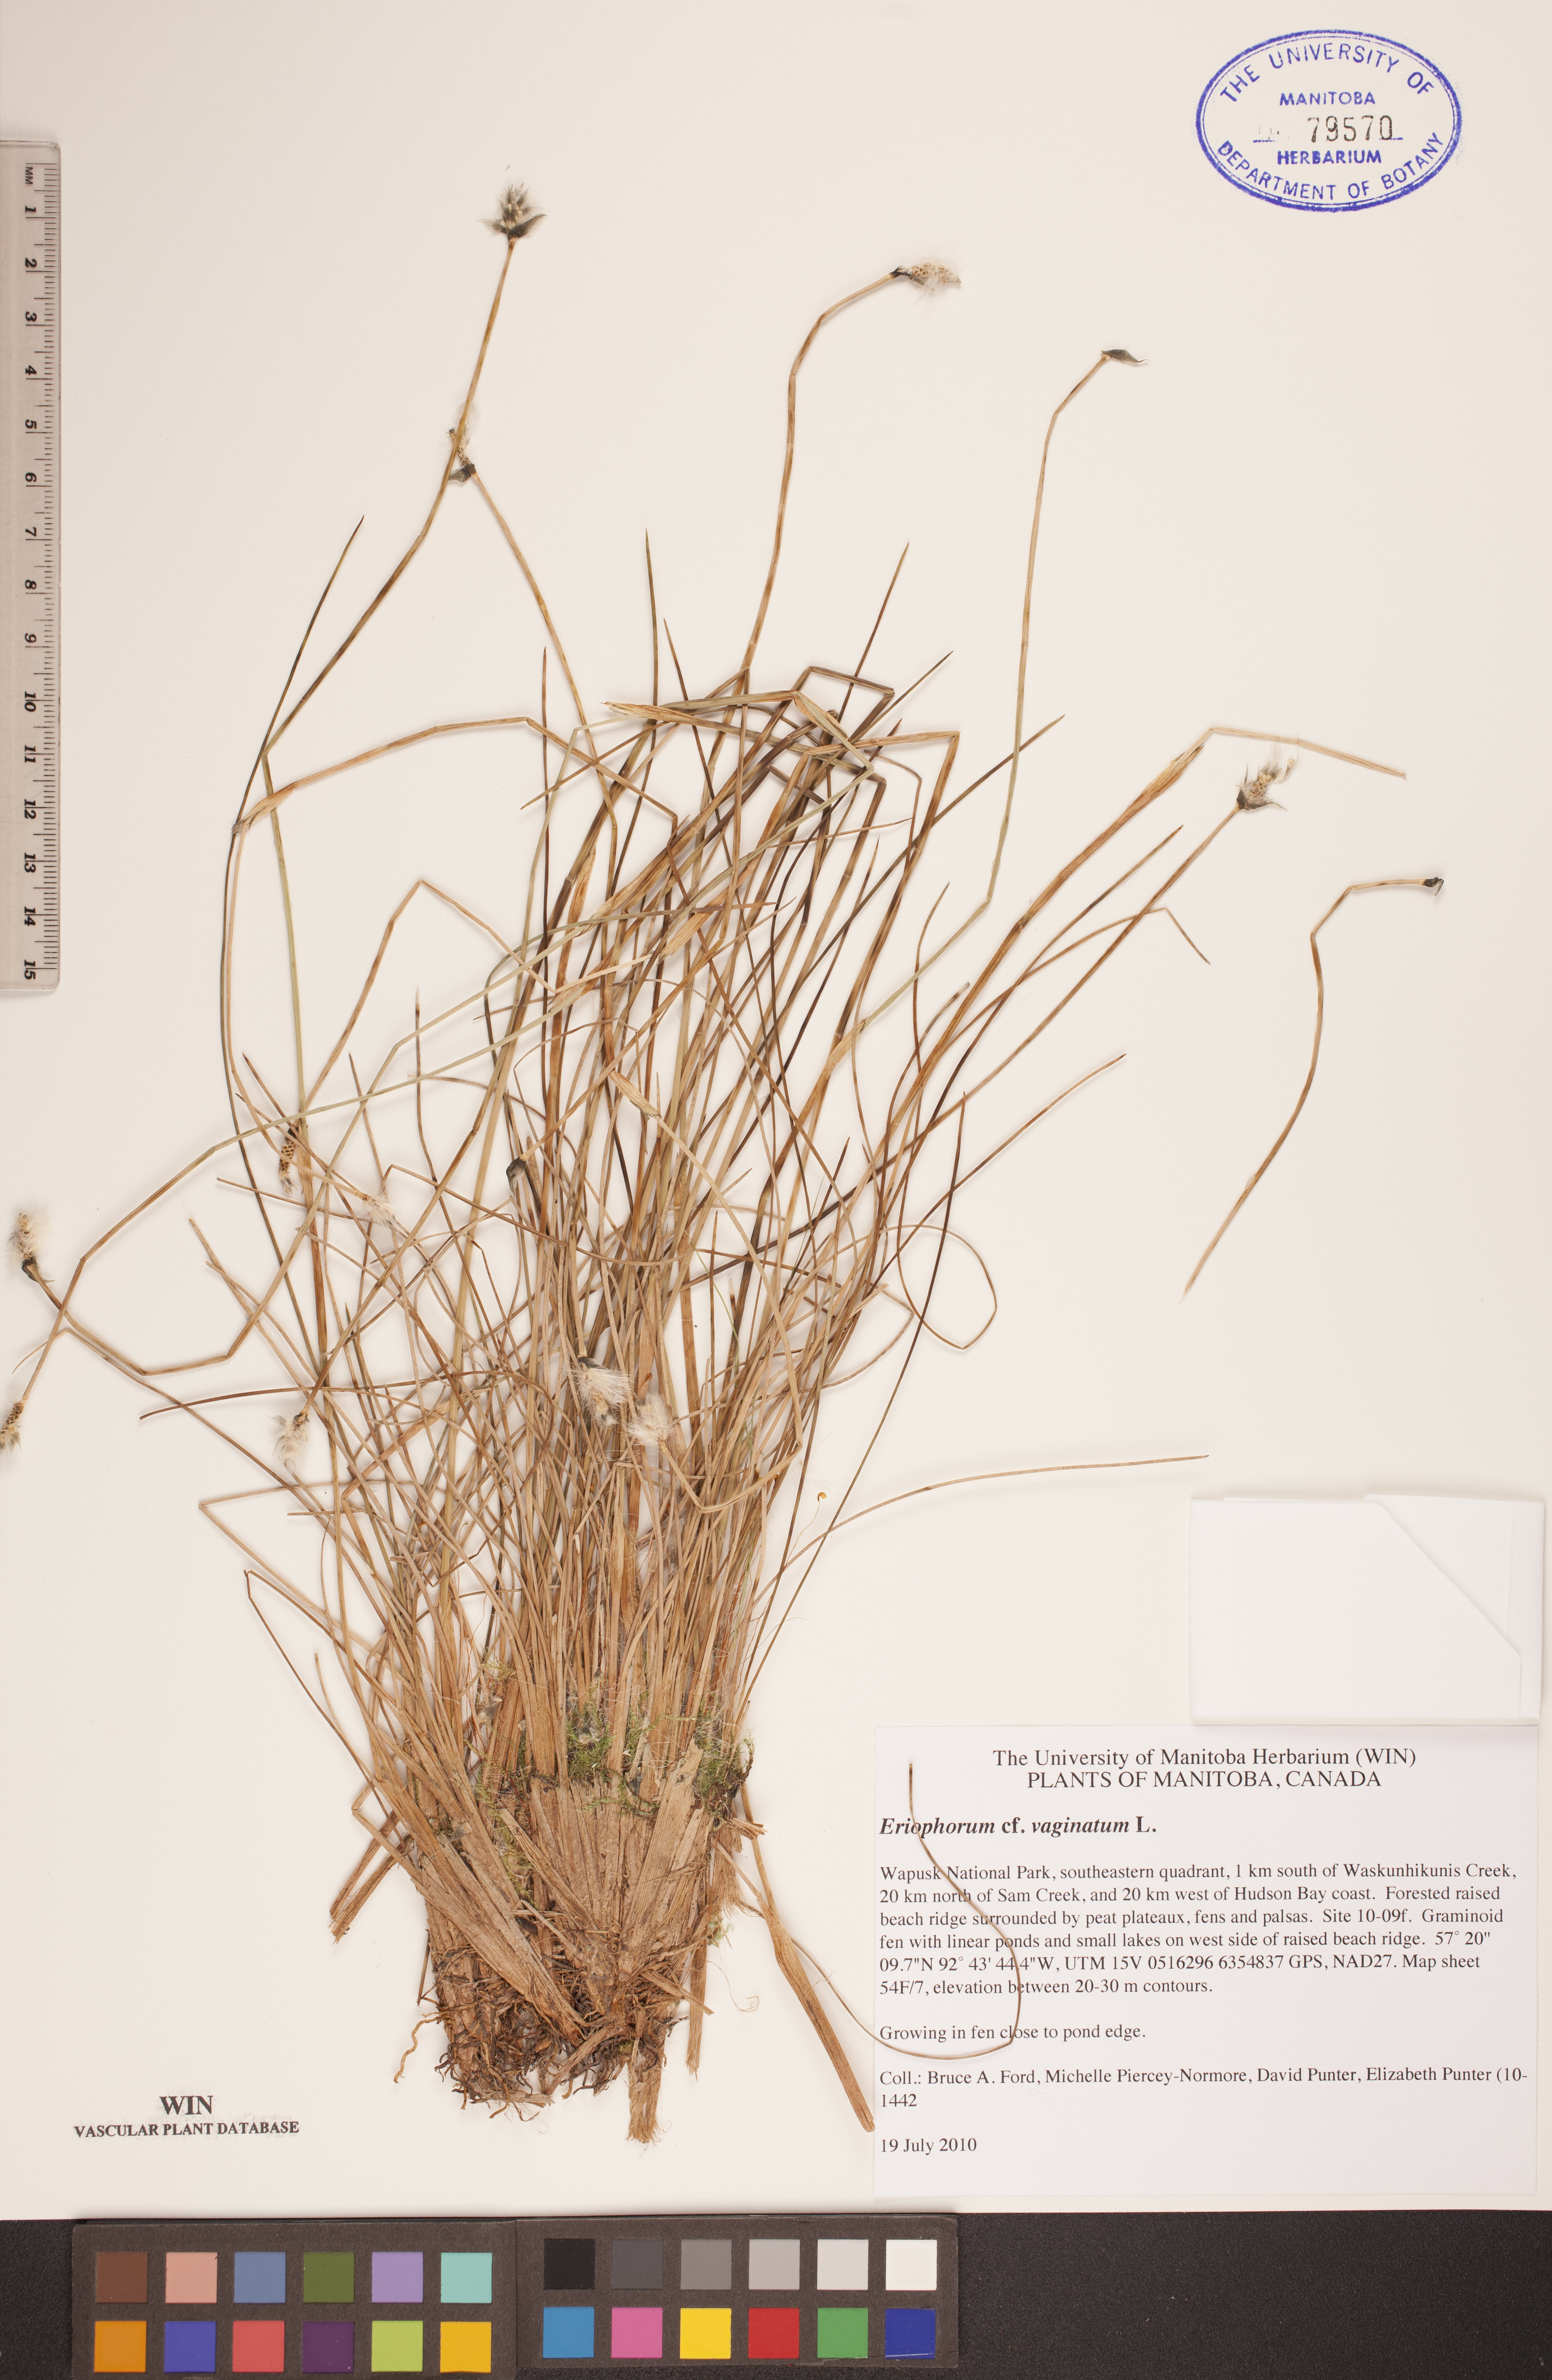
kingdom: Plantae
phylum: Tracheophyta
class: Liliopsida
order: Poales
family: Cyperaceae
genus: Eriophorum
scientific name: Eriophorum vaginatum
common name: Hare's-tail cottongrass
